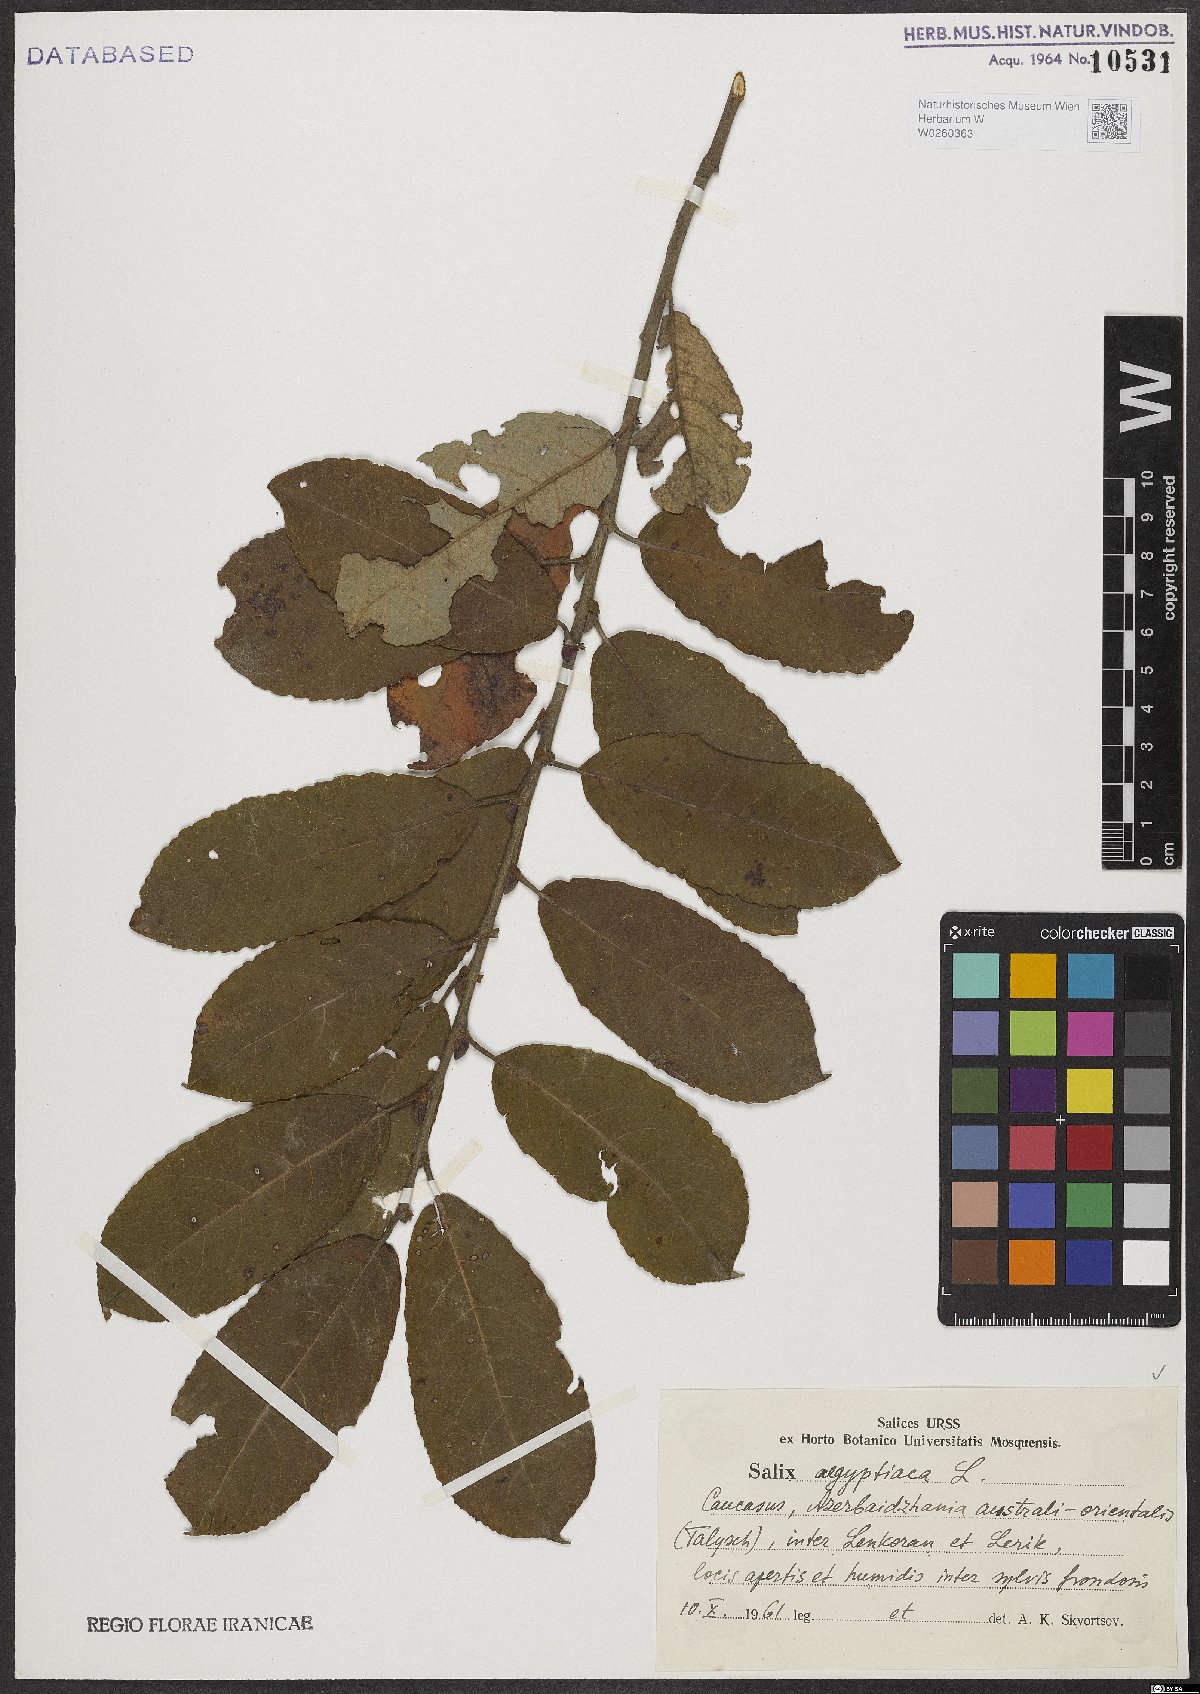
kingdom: Plantae
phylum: Tracheophyta
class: Magnoliopsida
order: Malpighiales
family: Salicaceae
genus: Salix
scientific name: Salix aegyptiaca
